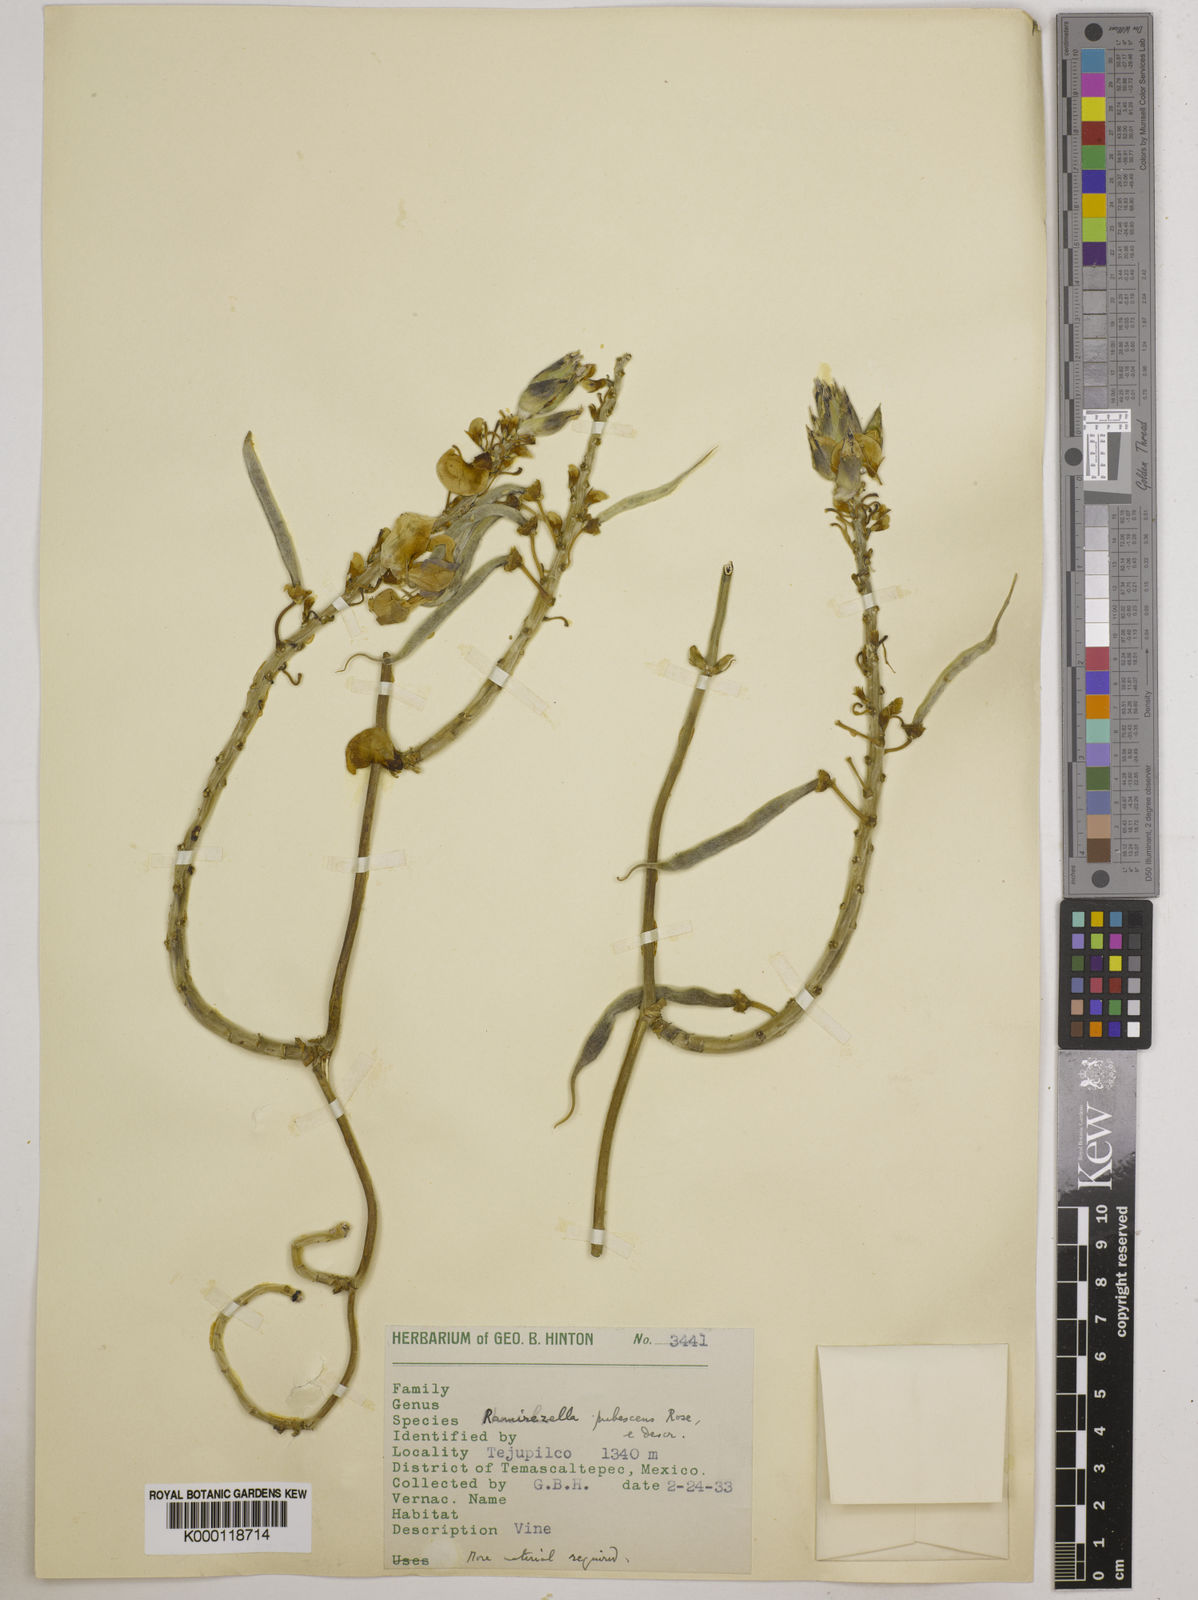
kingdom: Plantae
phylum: Tracheophyta
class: Magnoliopsida
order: Fabales
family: Fabaceae
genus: Ramirezella
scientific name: Ramirezella strobilophora
